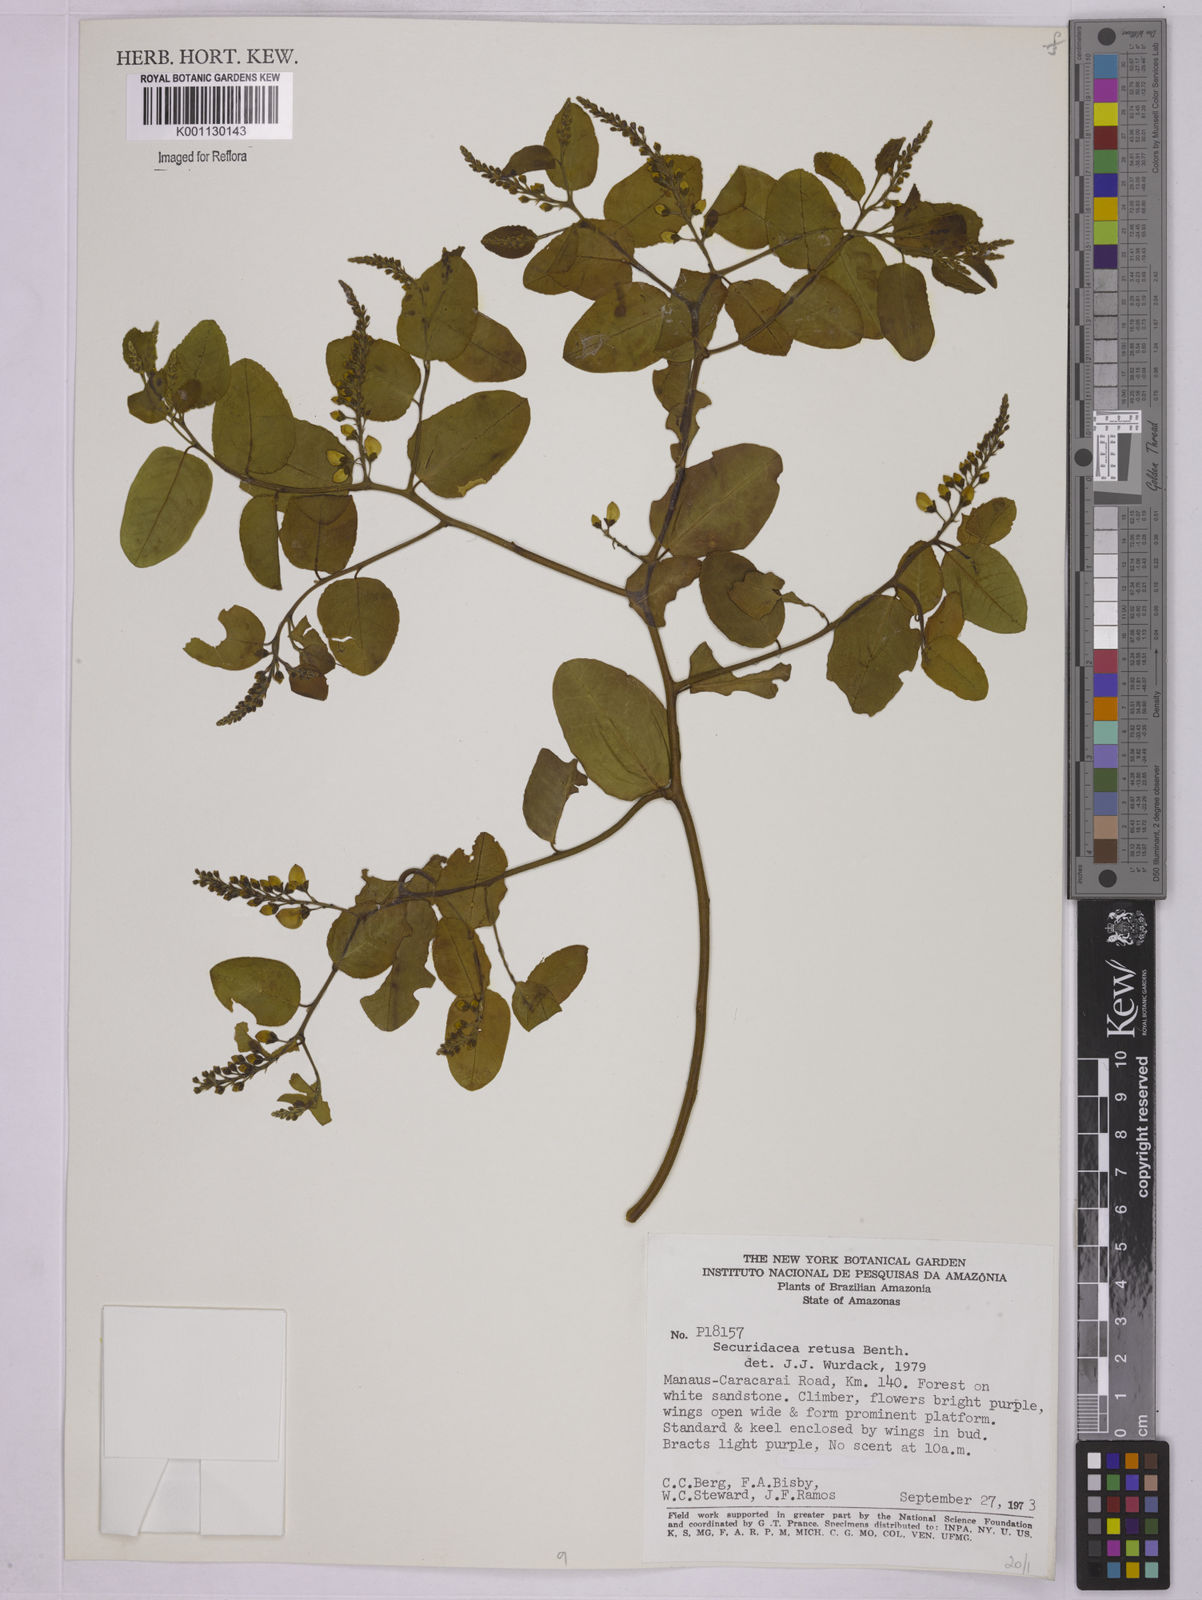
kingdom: Plantae
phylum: Tracheophyta
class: Magnoliopsida
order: Fabales
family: Polygalaceae
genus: Securidaca
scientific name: Securidaca retusa
